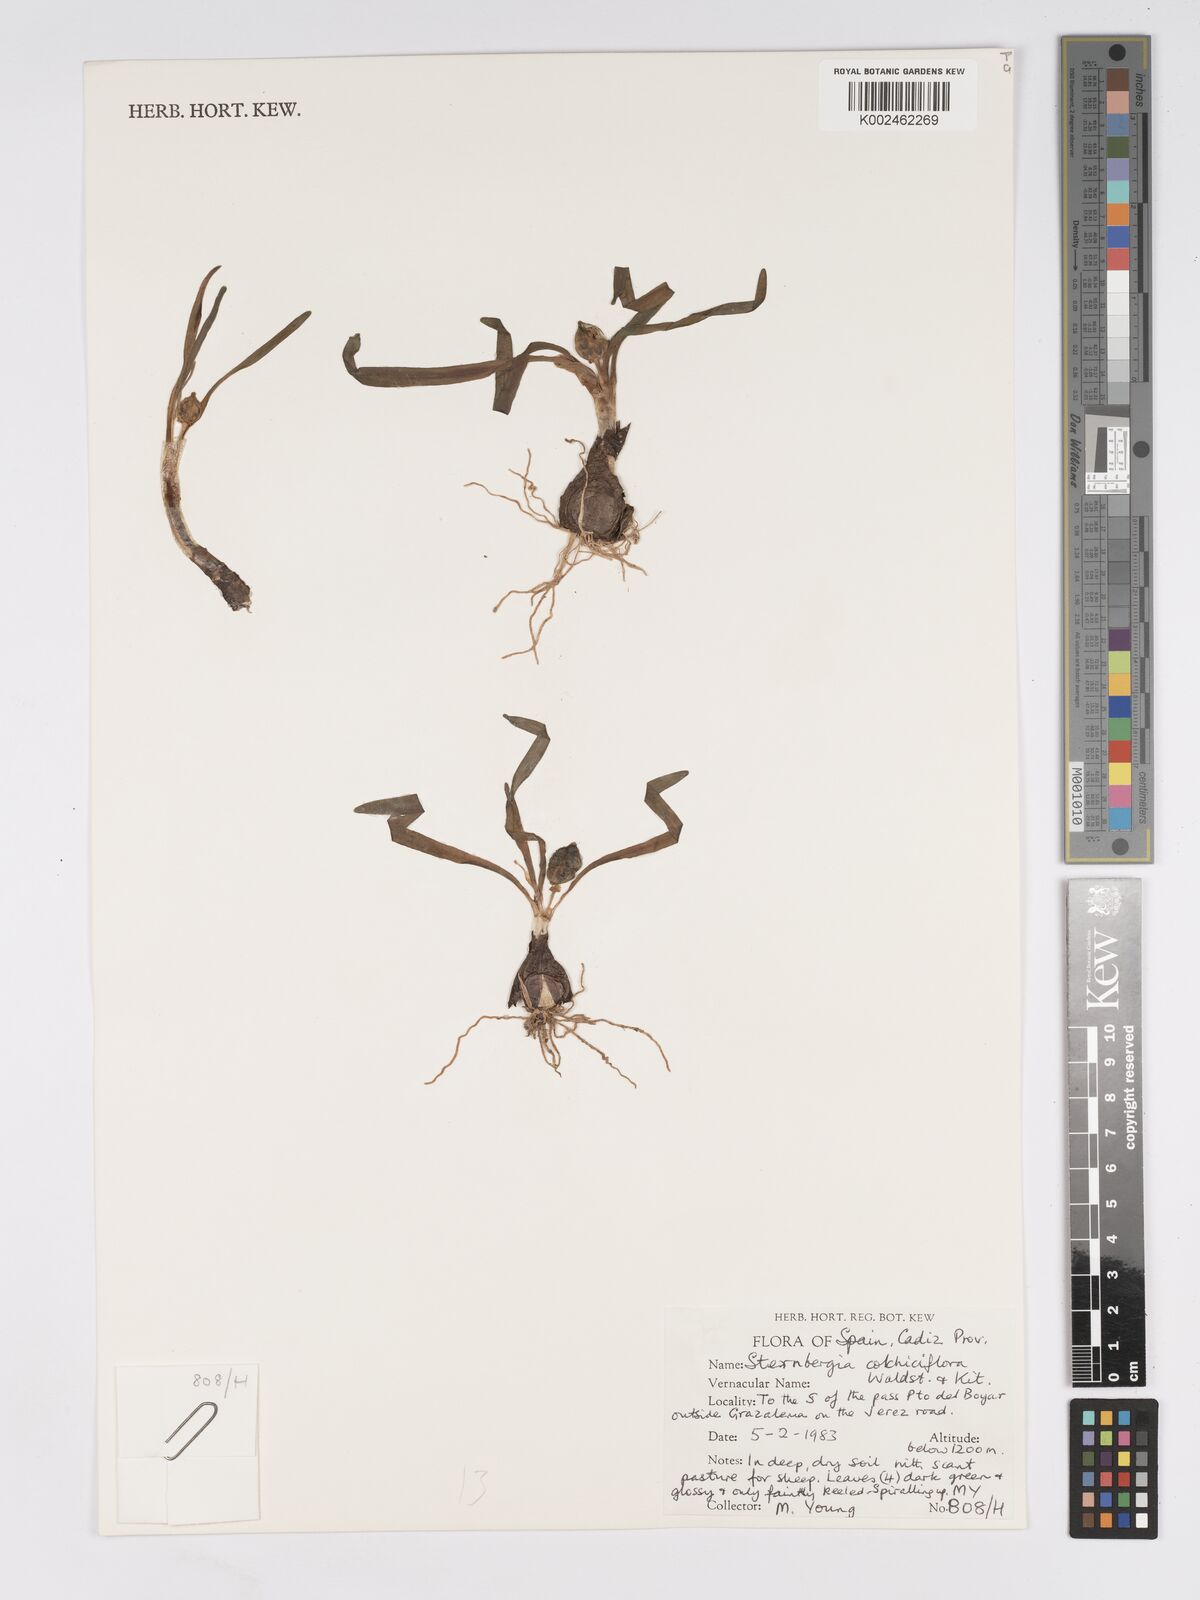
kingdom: Plantae
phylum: Tracheophyta
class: Liliopsida
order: Asparagales
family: Amaryllidaceae
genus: Sternbergia
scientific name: Sternbergia colchiciflora
